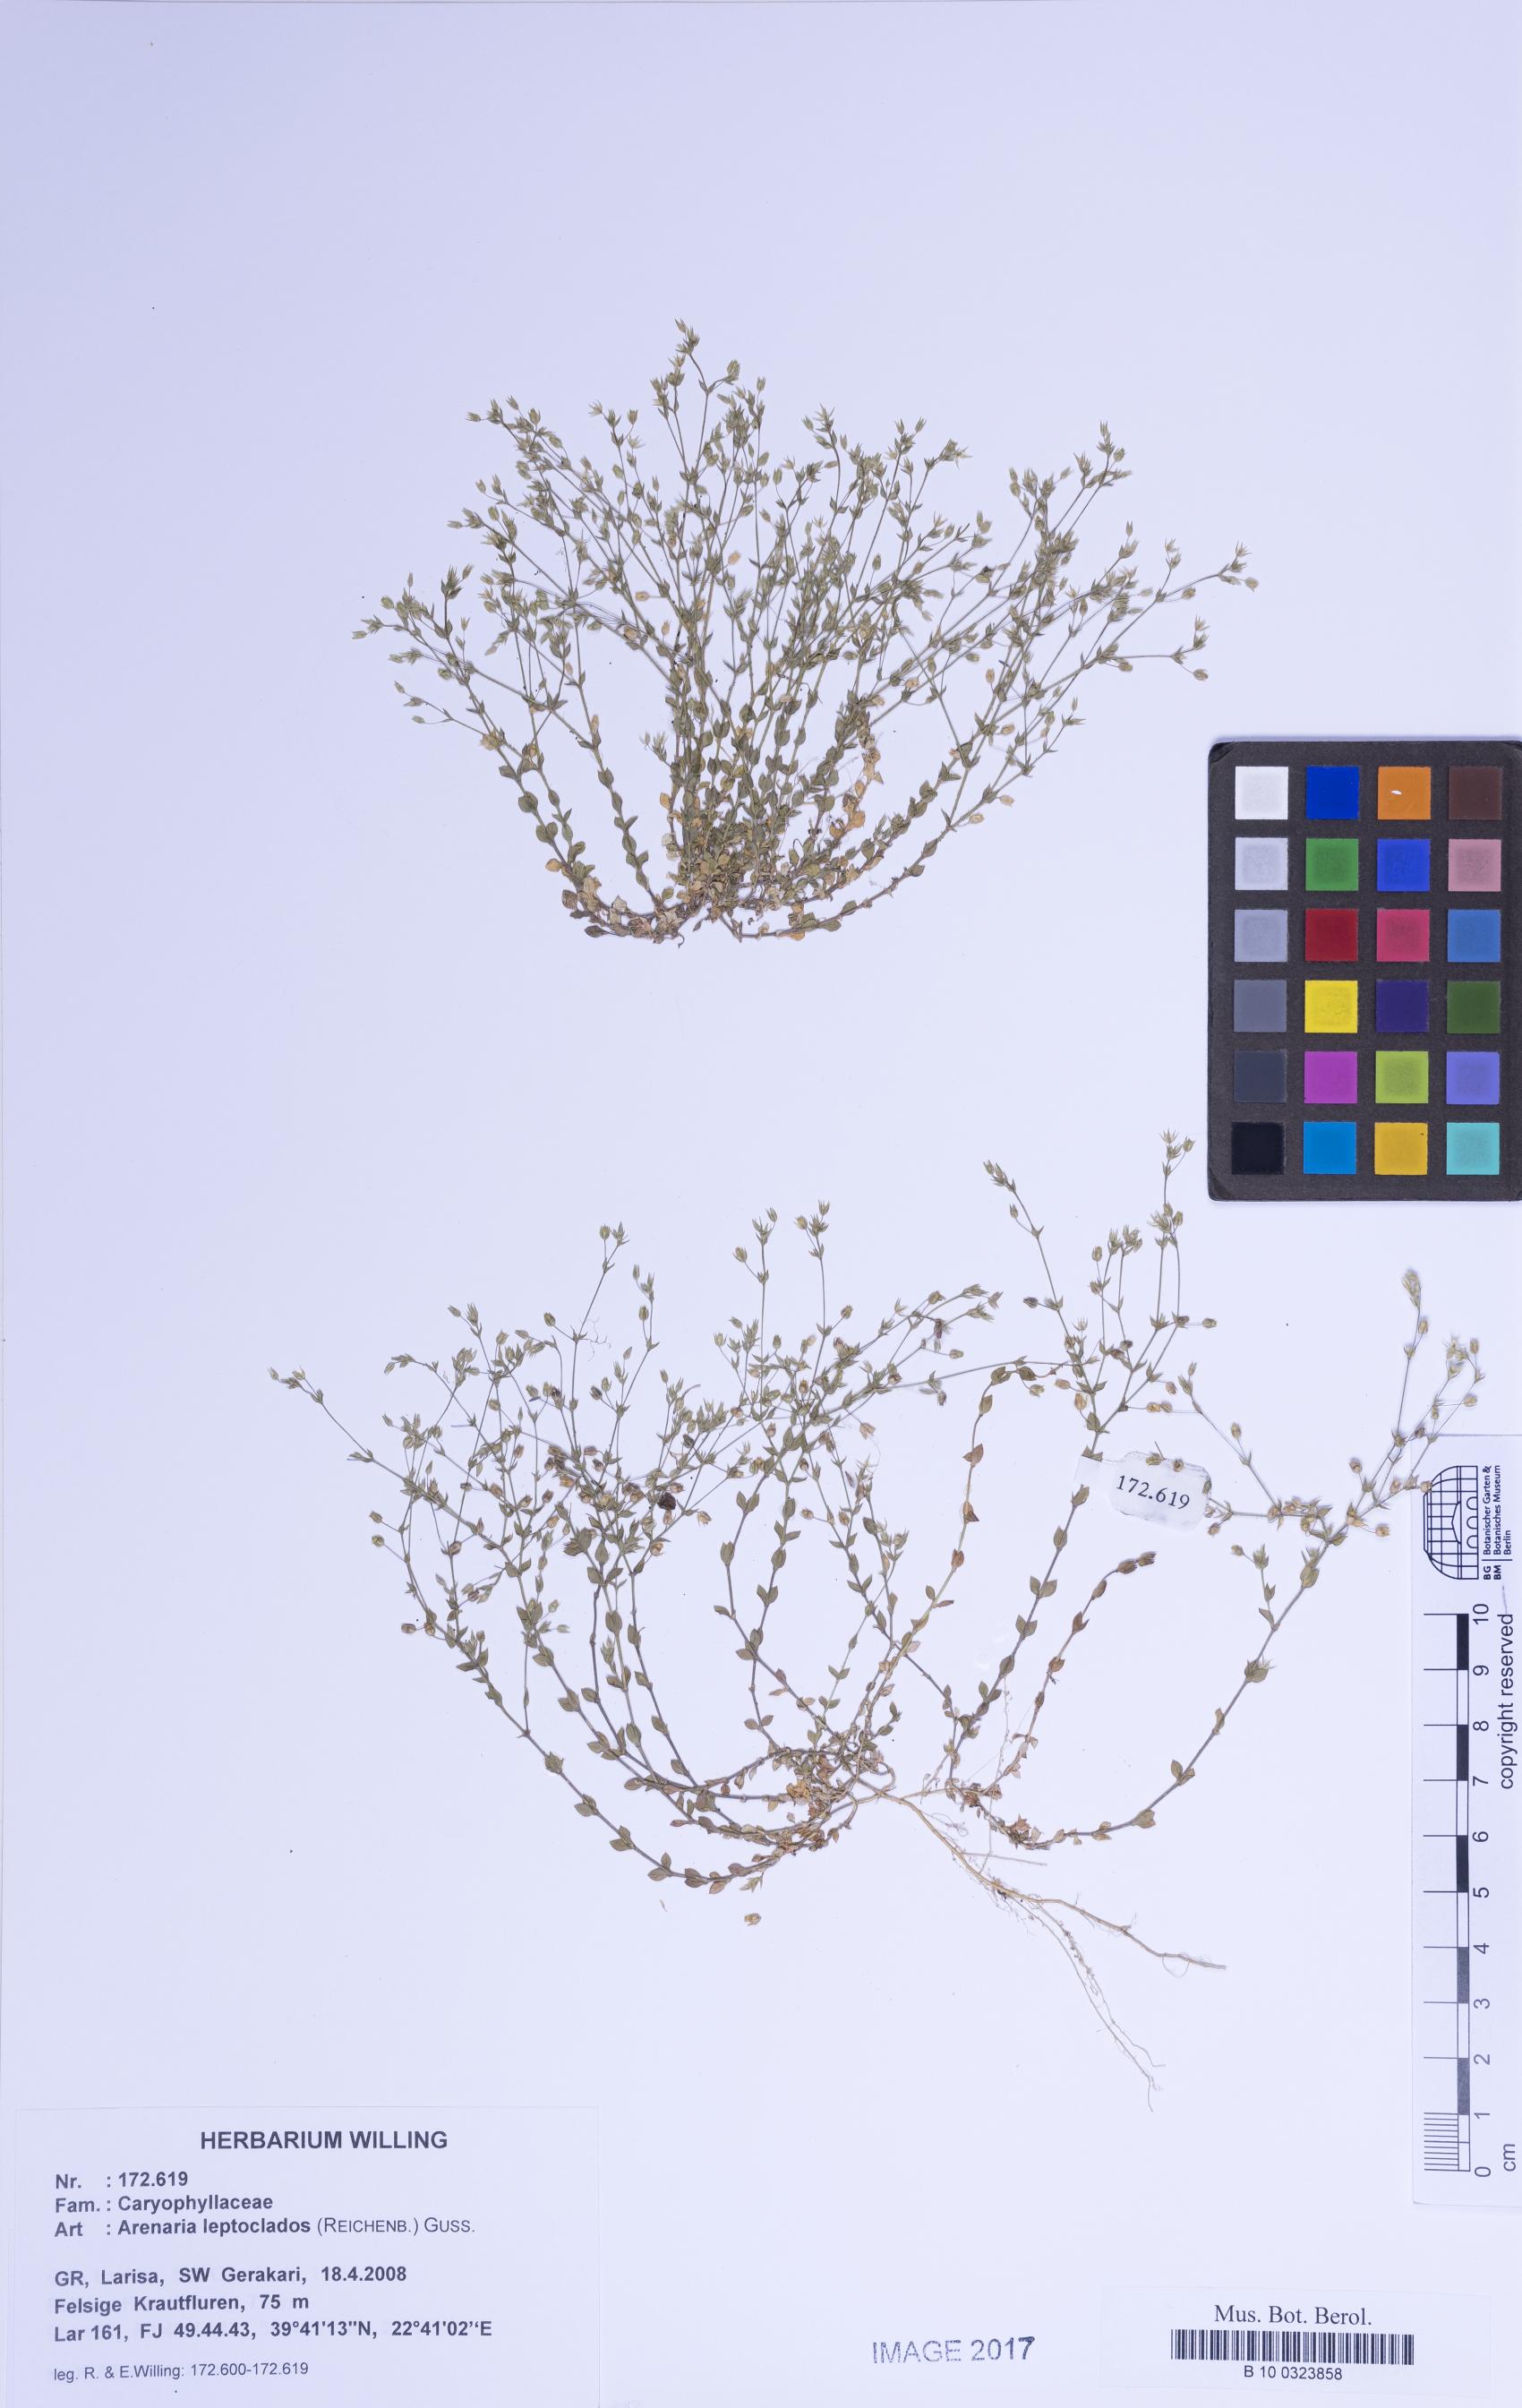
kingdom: Plantae
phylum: Tracheophyta
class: Magnoliopsida
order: Caryophyllales
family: Caryophyllaceae
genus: Arenaria
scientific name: Arenaria leptoclados
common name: Thyme-leaved sandwort
